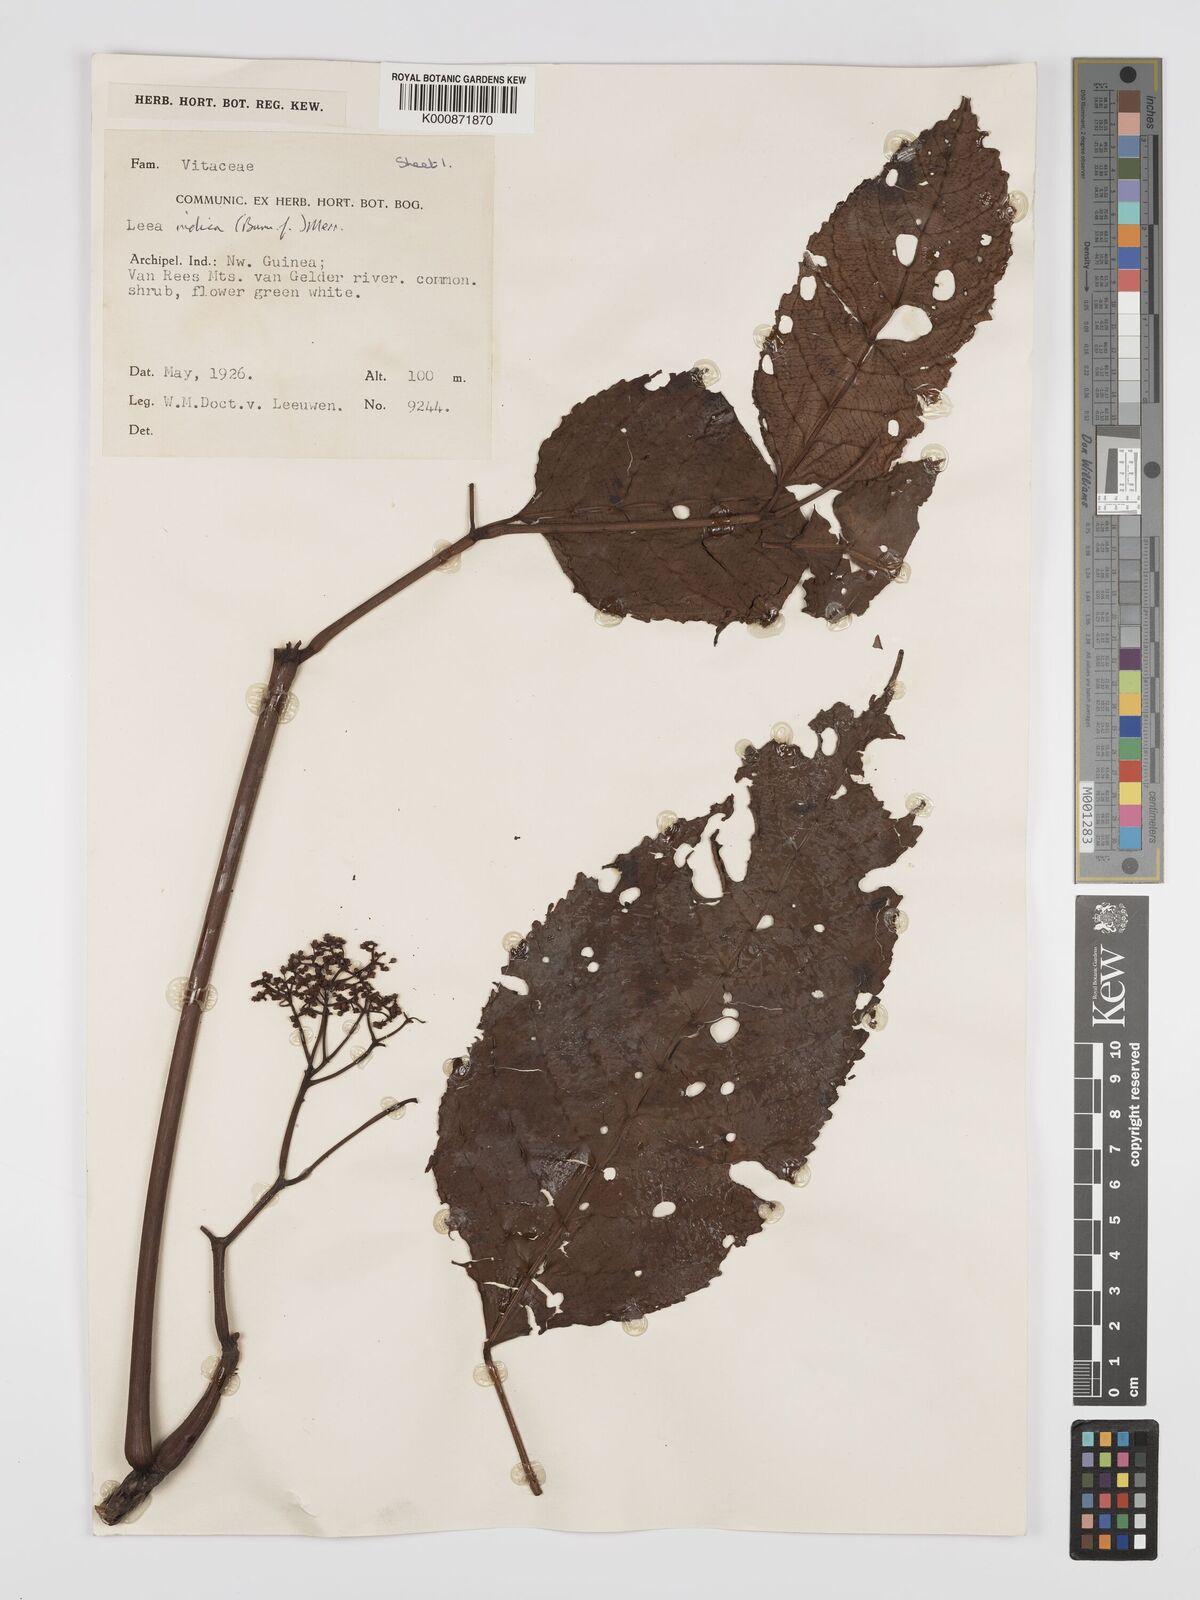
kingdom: Plantae
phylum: Tracheophyta
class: Magnoliopsida
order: Vitales
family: Vitaceae
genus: Leea
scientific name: Leea indica
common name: Bandicoot-berry
